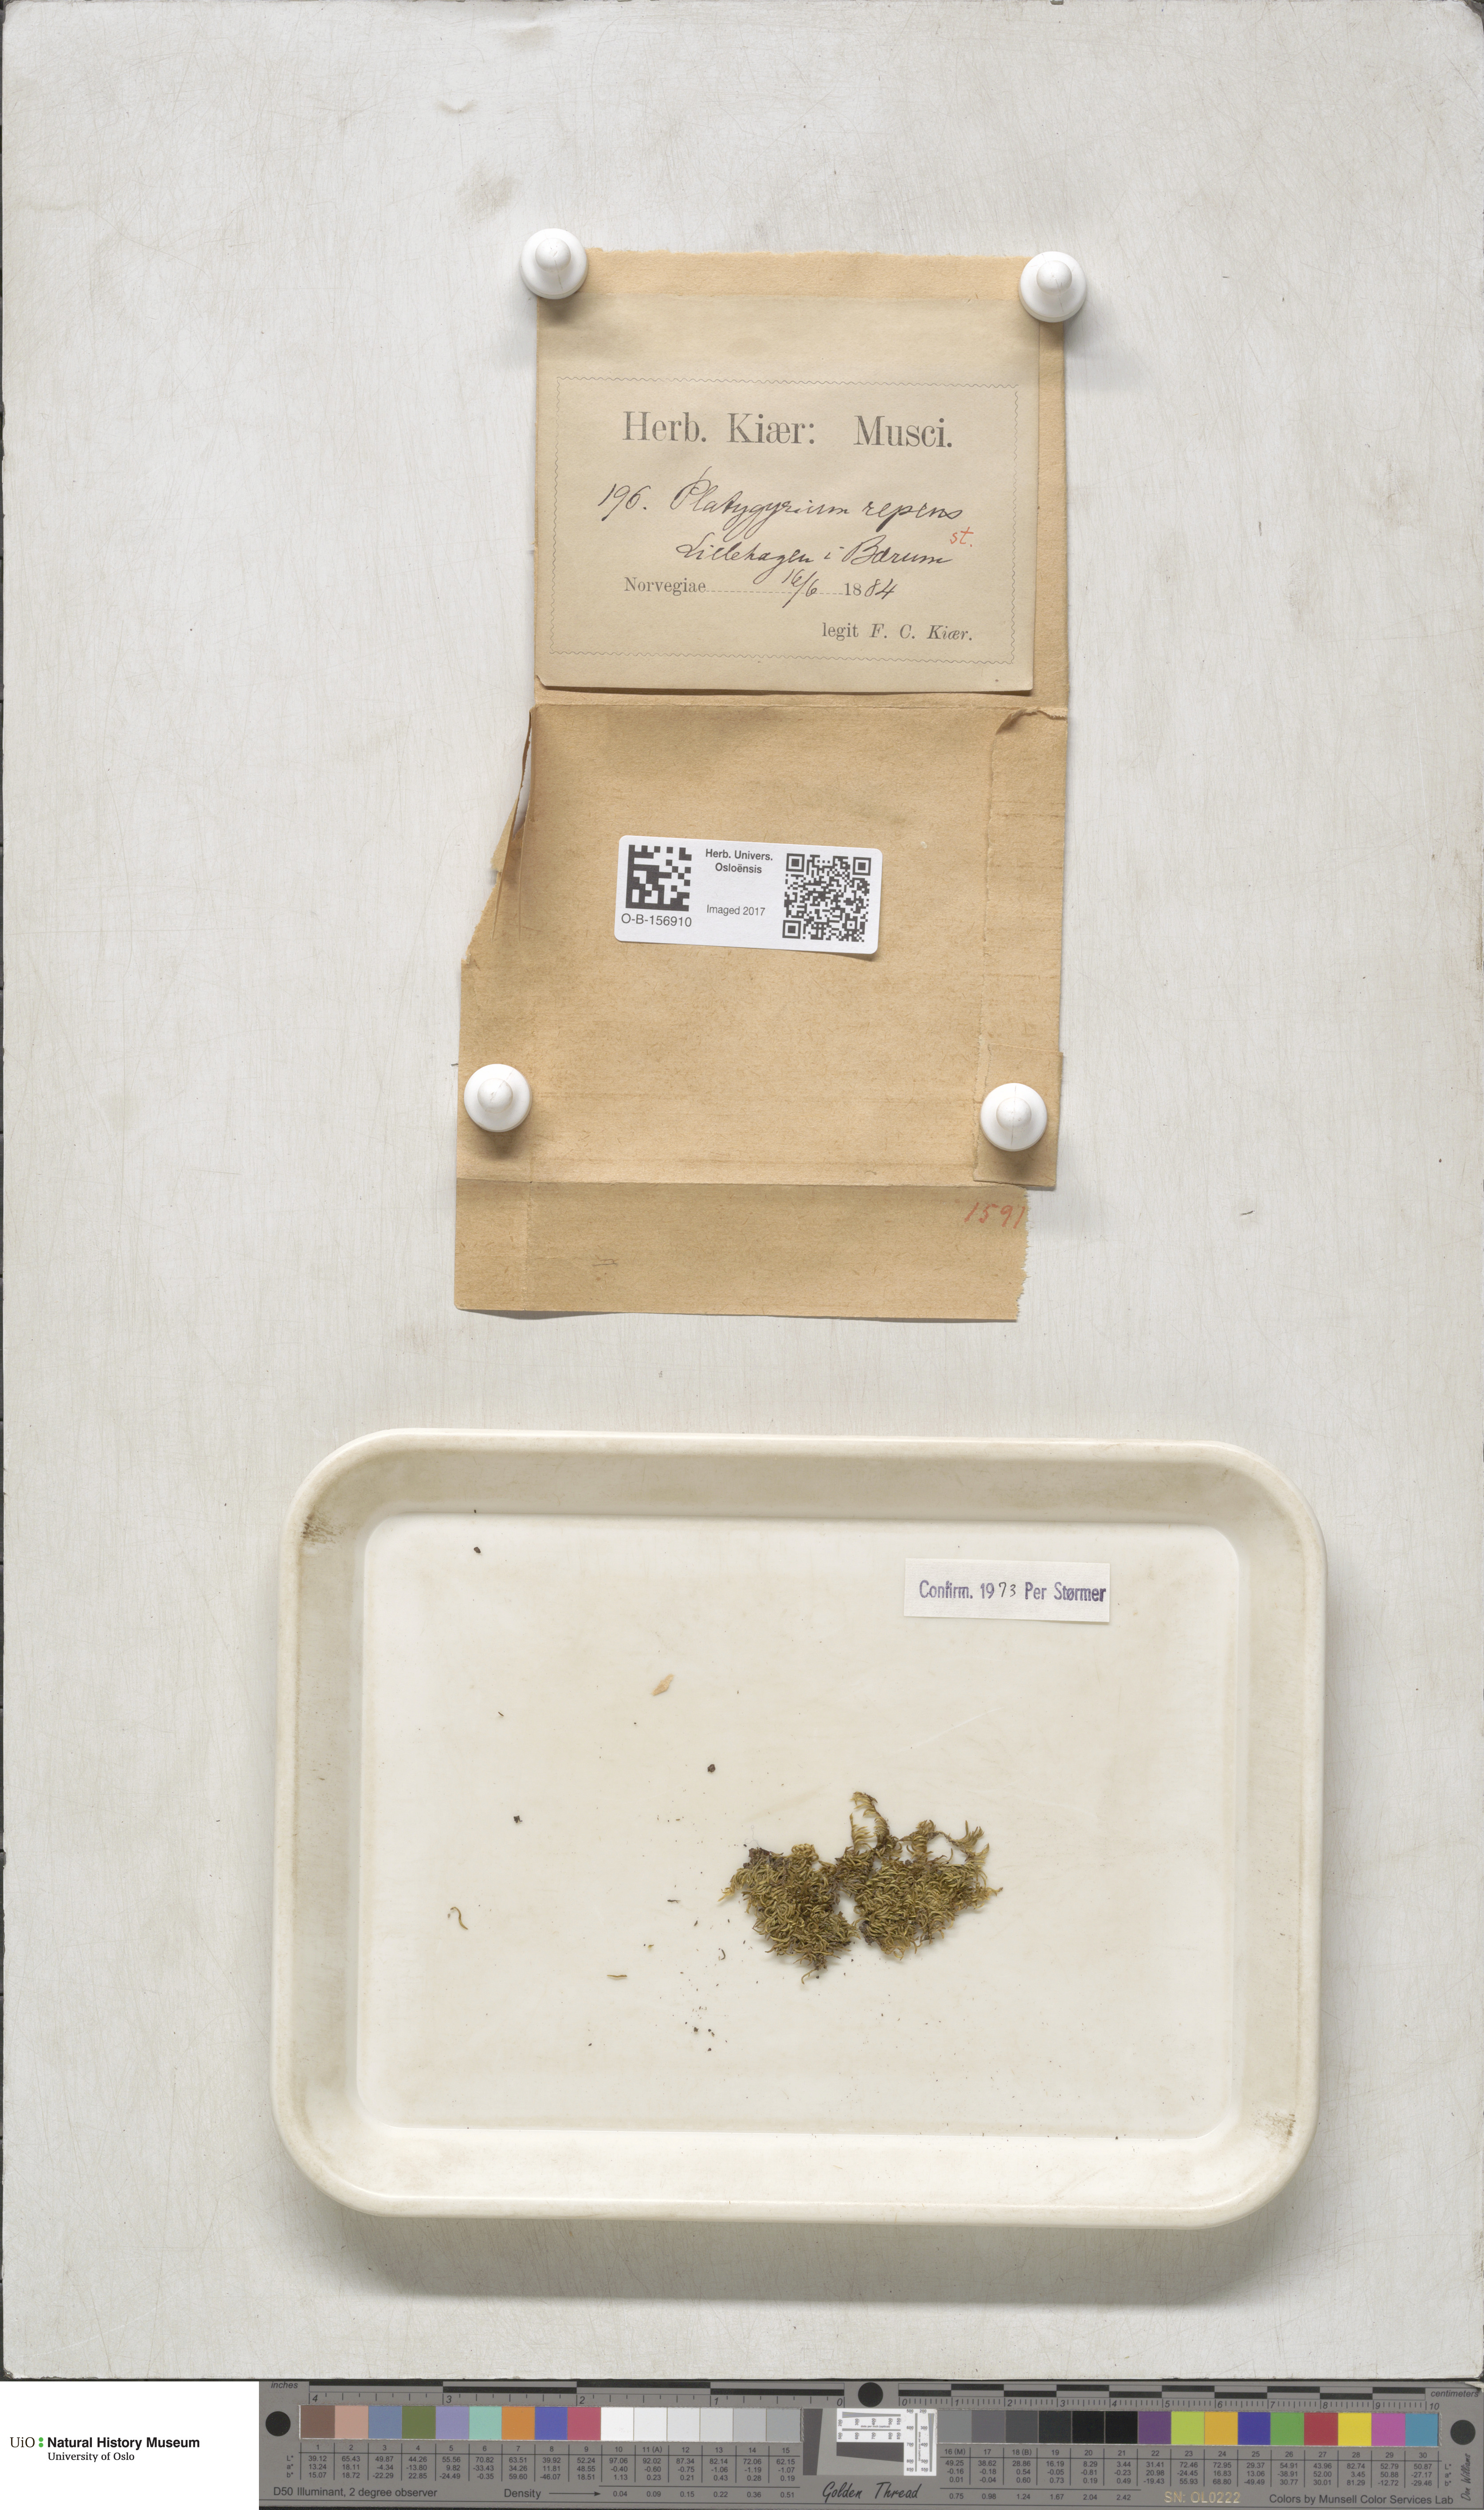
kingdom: Plantae
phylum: Bryophyta
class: Bryopsida
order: Hypnales
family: Pylaisiadelphaceae
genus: Platygyrium
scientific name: Platygyrium repens
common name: Flat-brocade moss
